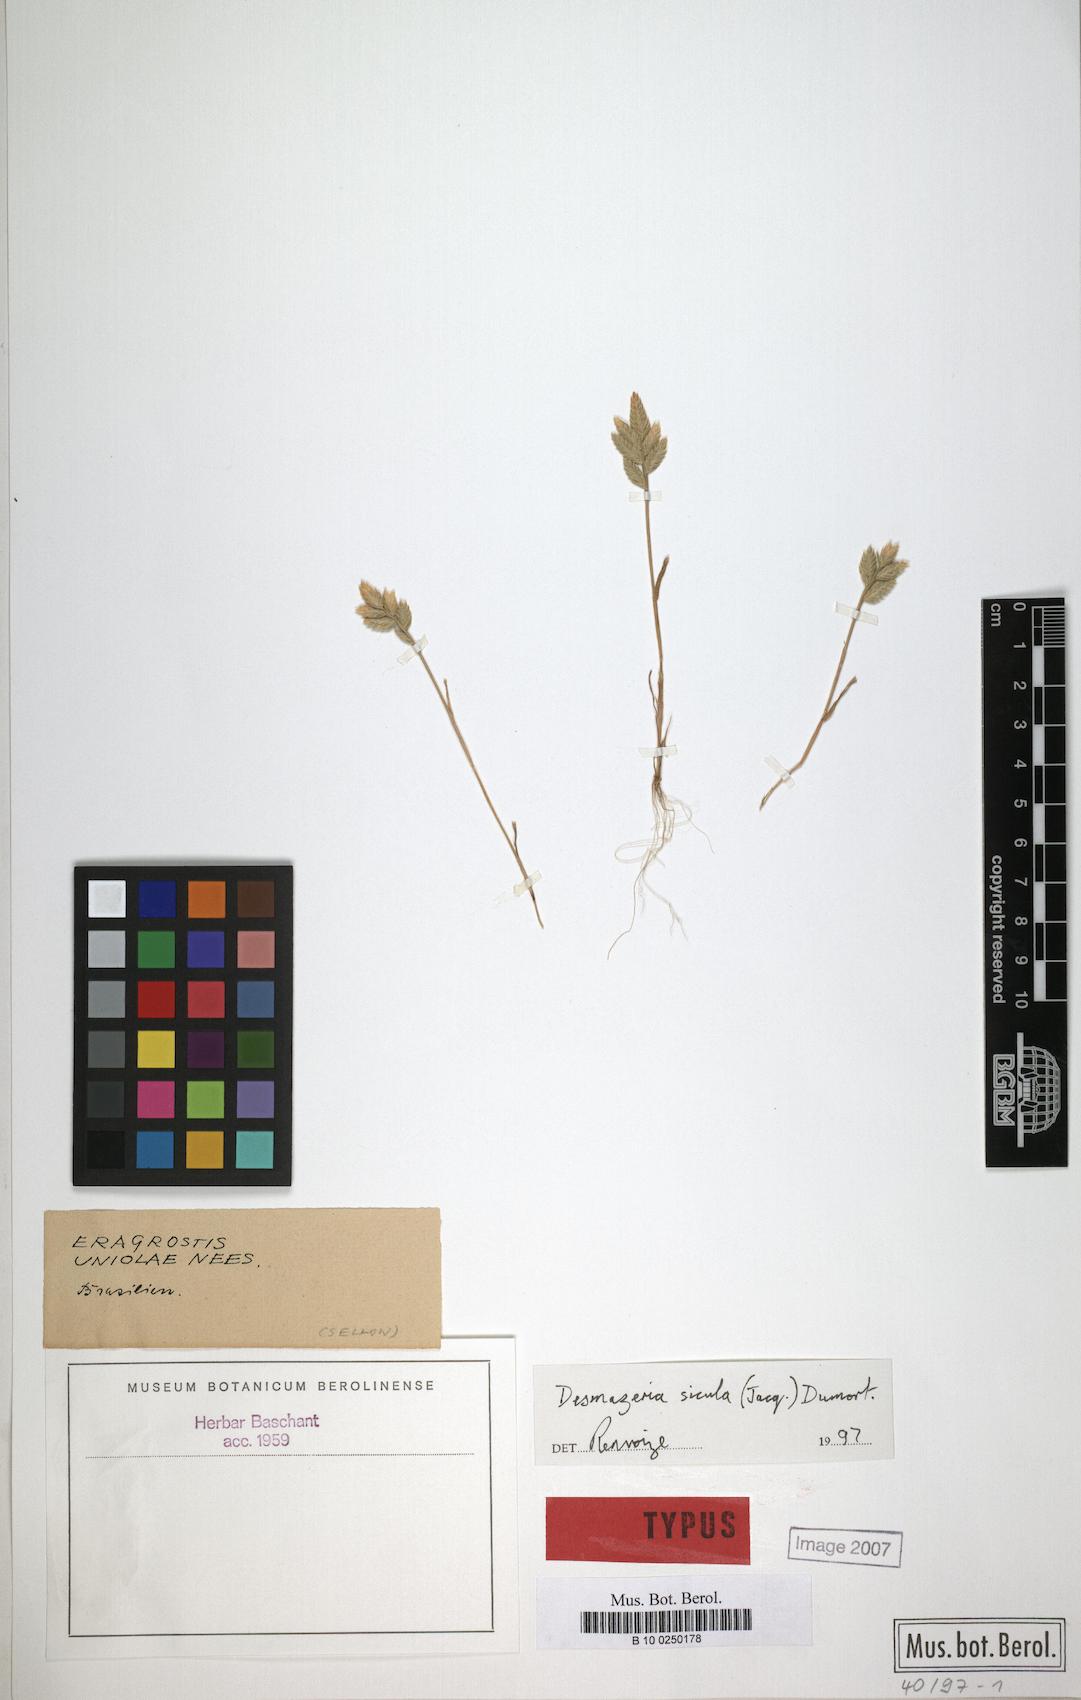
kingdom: Plantae
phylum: Tracheophyta
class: Liliopsida
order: Poales
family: Poaceae
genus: Eriochloa
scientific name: Eriochloa
